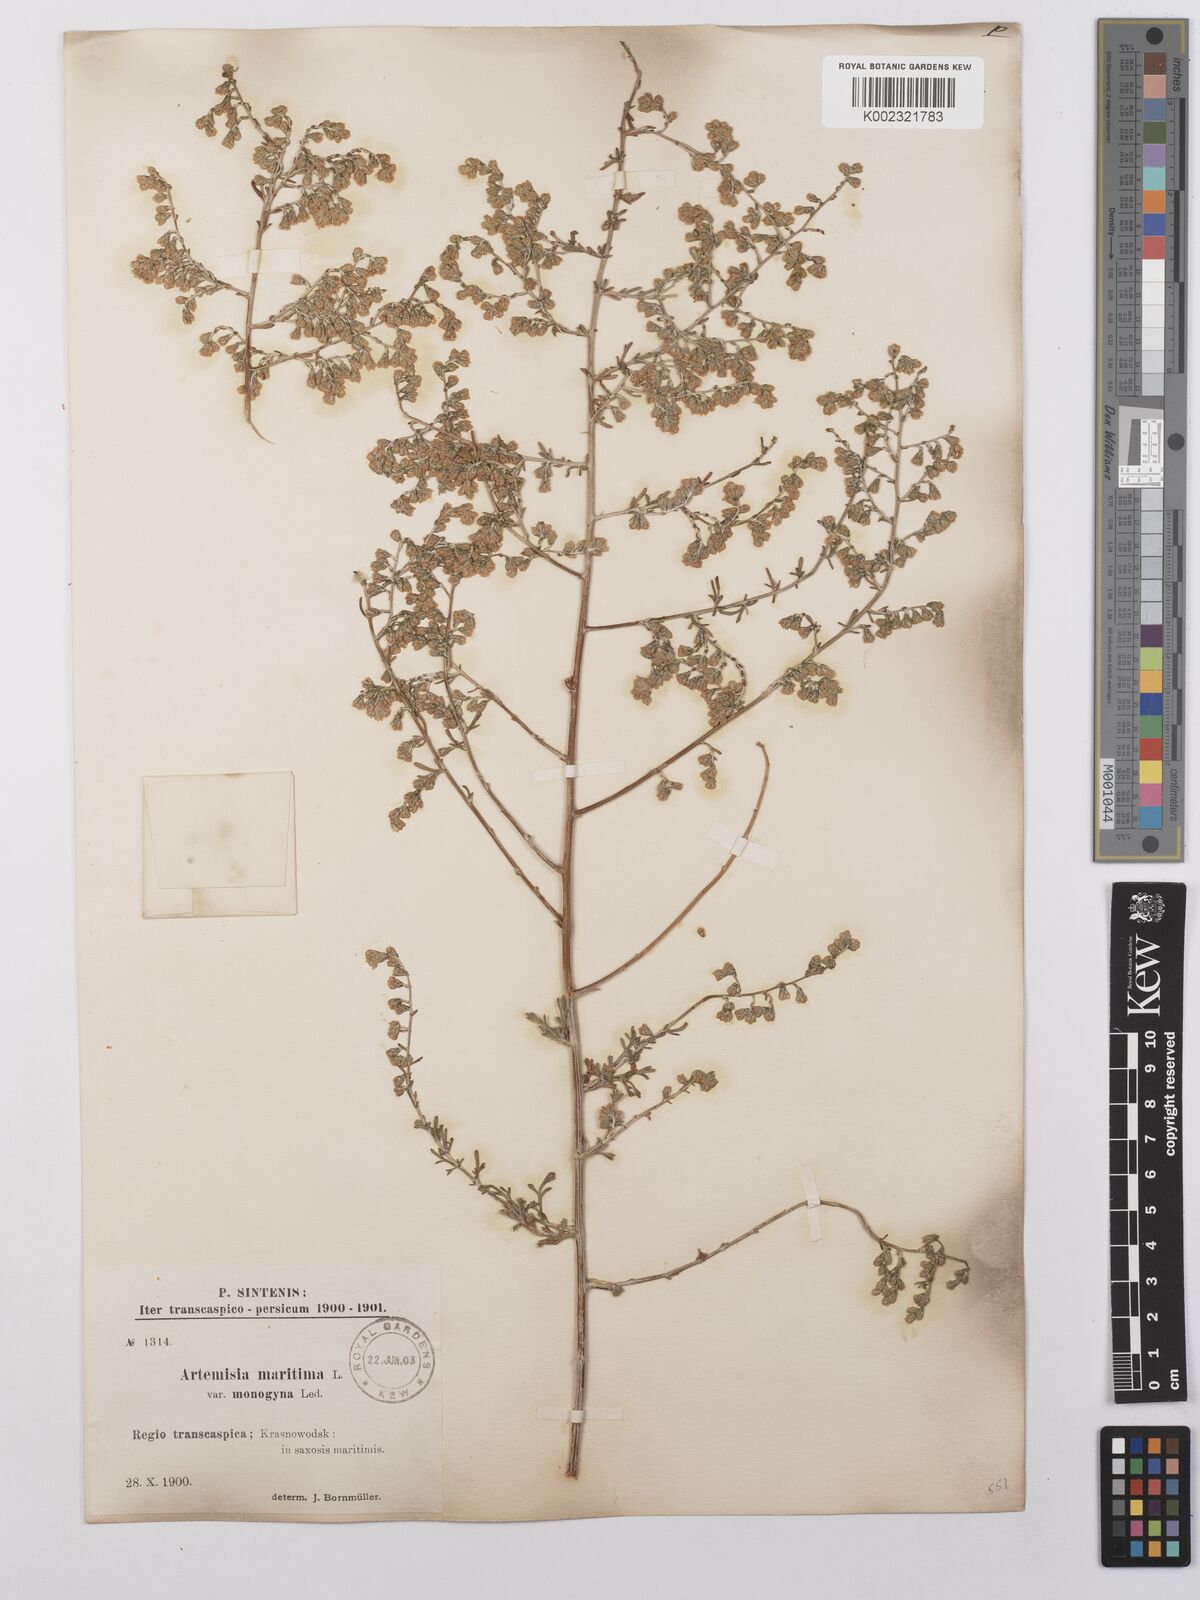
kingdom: Plantae
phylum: Tracheophyta
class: Magnoliopsida
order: Asterales
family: Asteraceae
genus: Artemisia
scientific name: Artemisia santonicum
